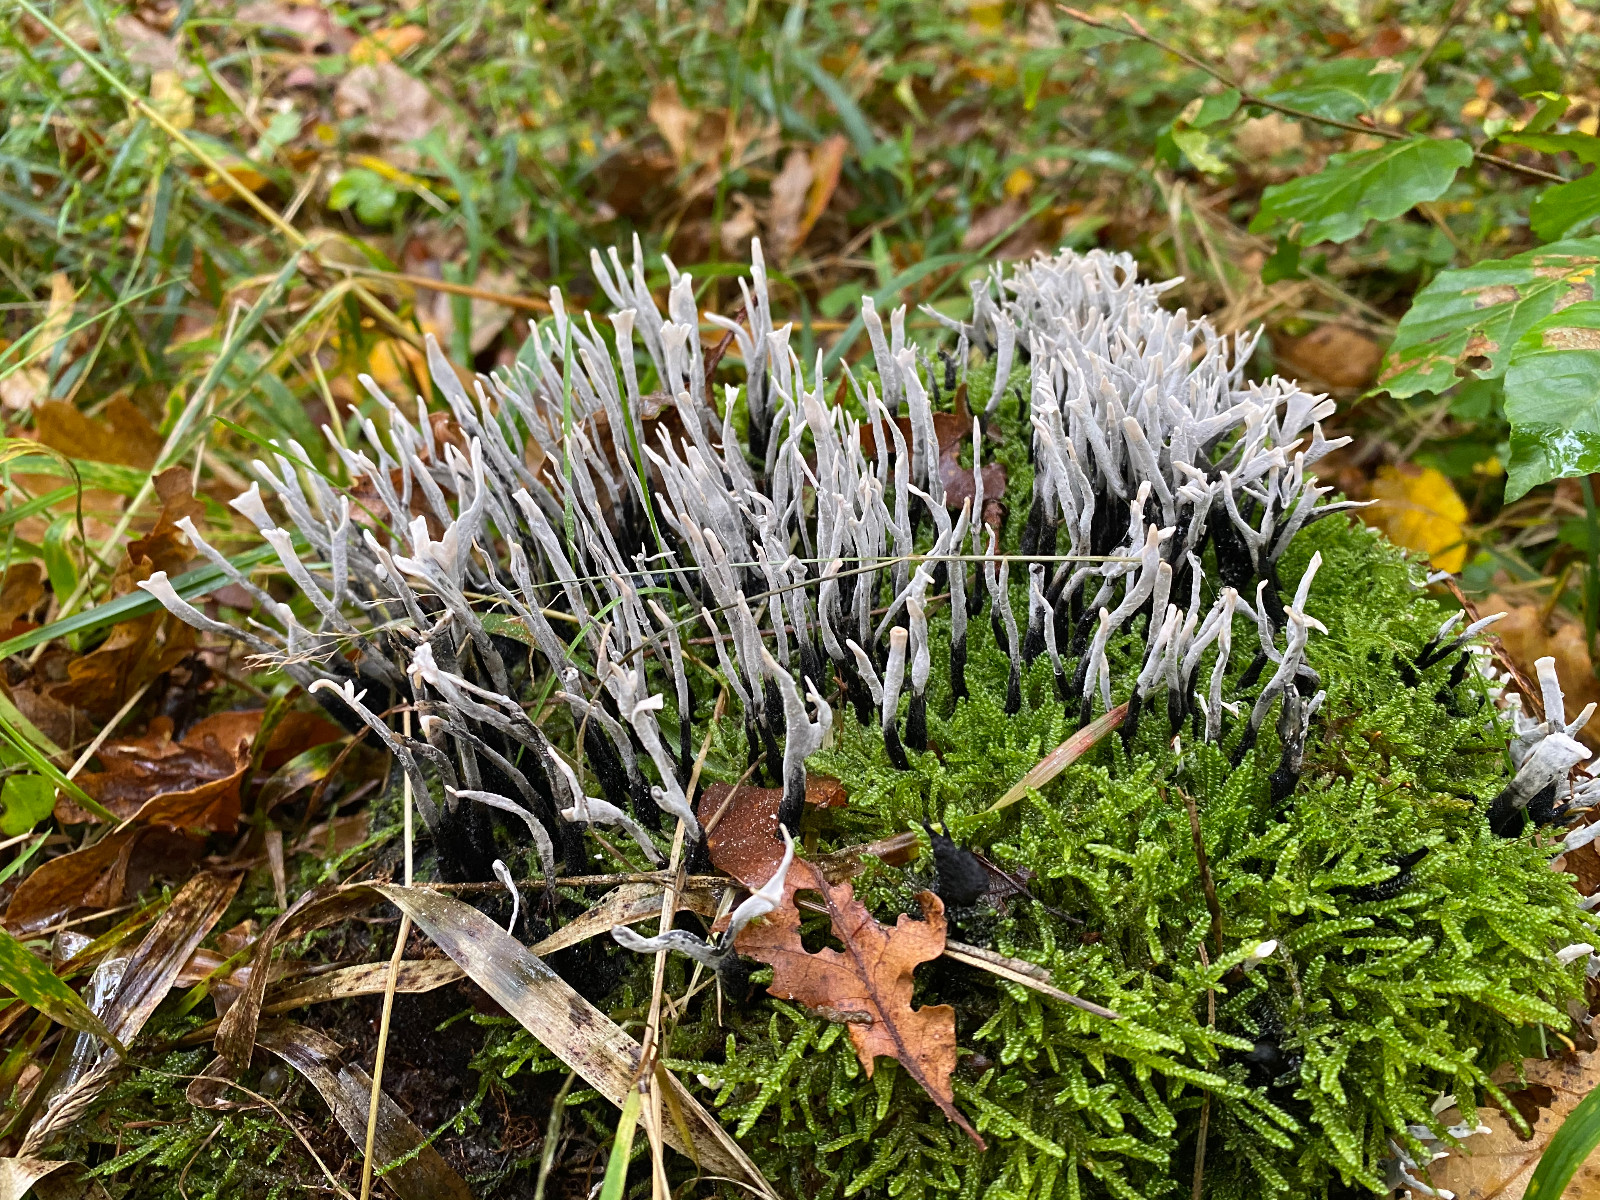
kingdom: Fungi
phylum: Ascomycota
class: Sordariomycetes
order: Xylariales
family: Xylariaceae
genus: Xylaria
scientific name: Xylaria hypoxylon
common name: grenet stødsvamp
